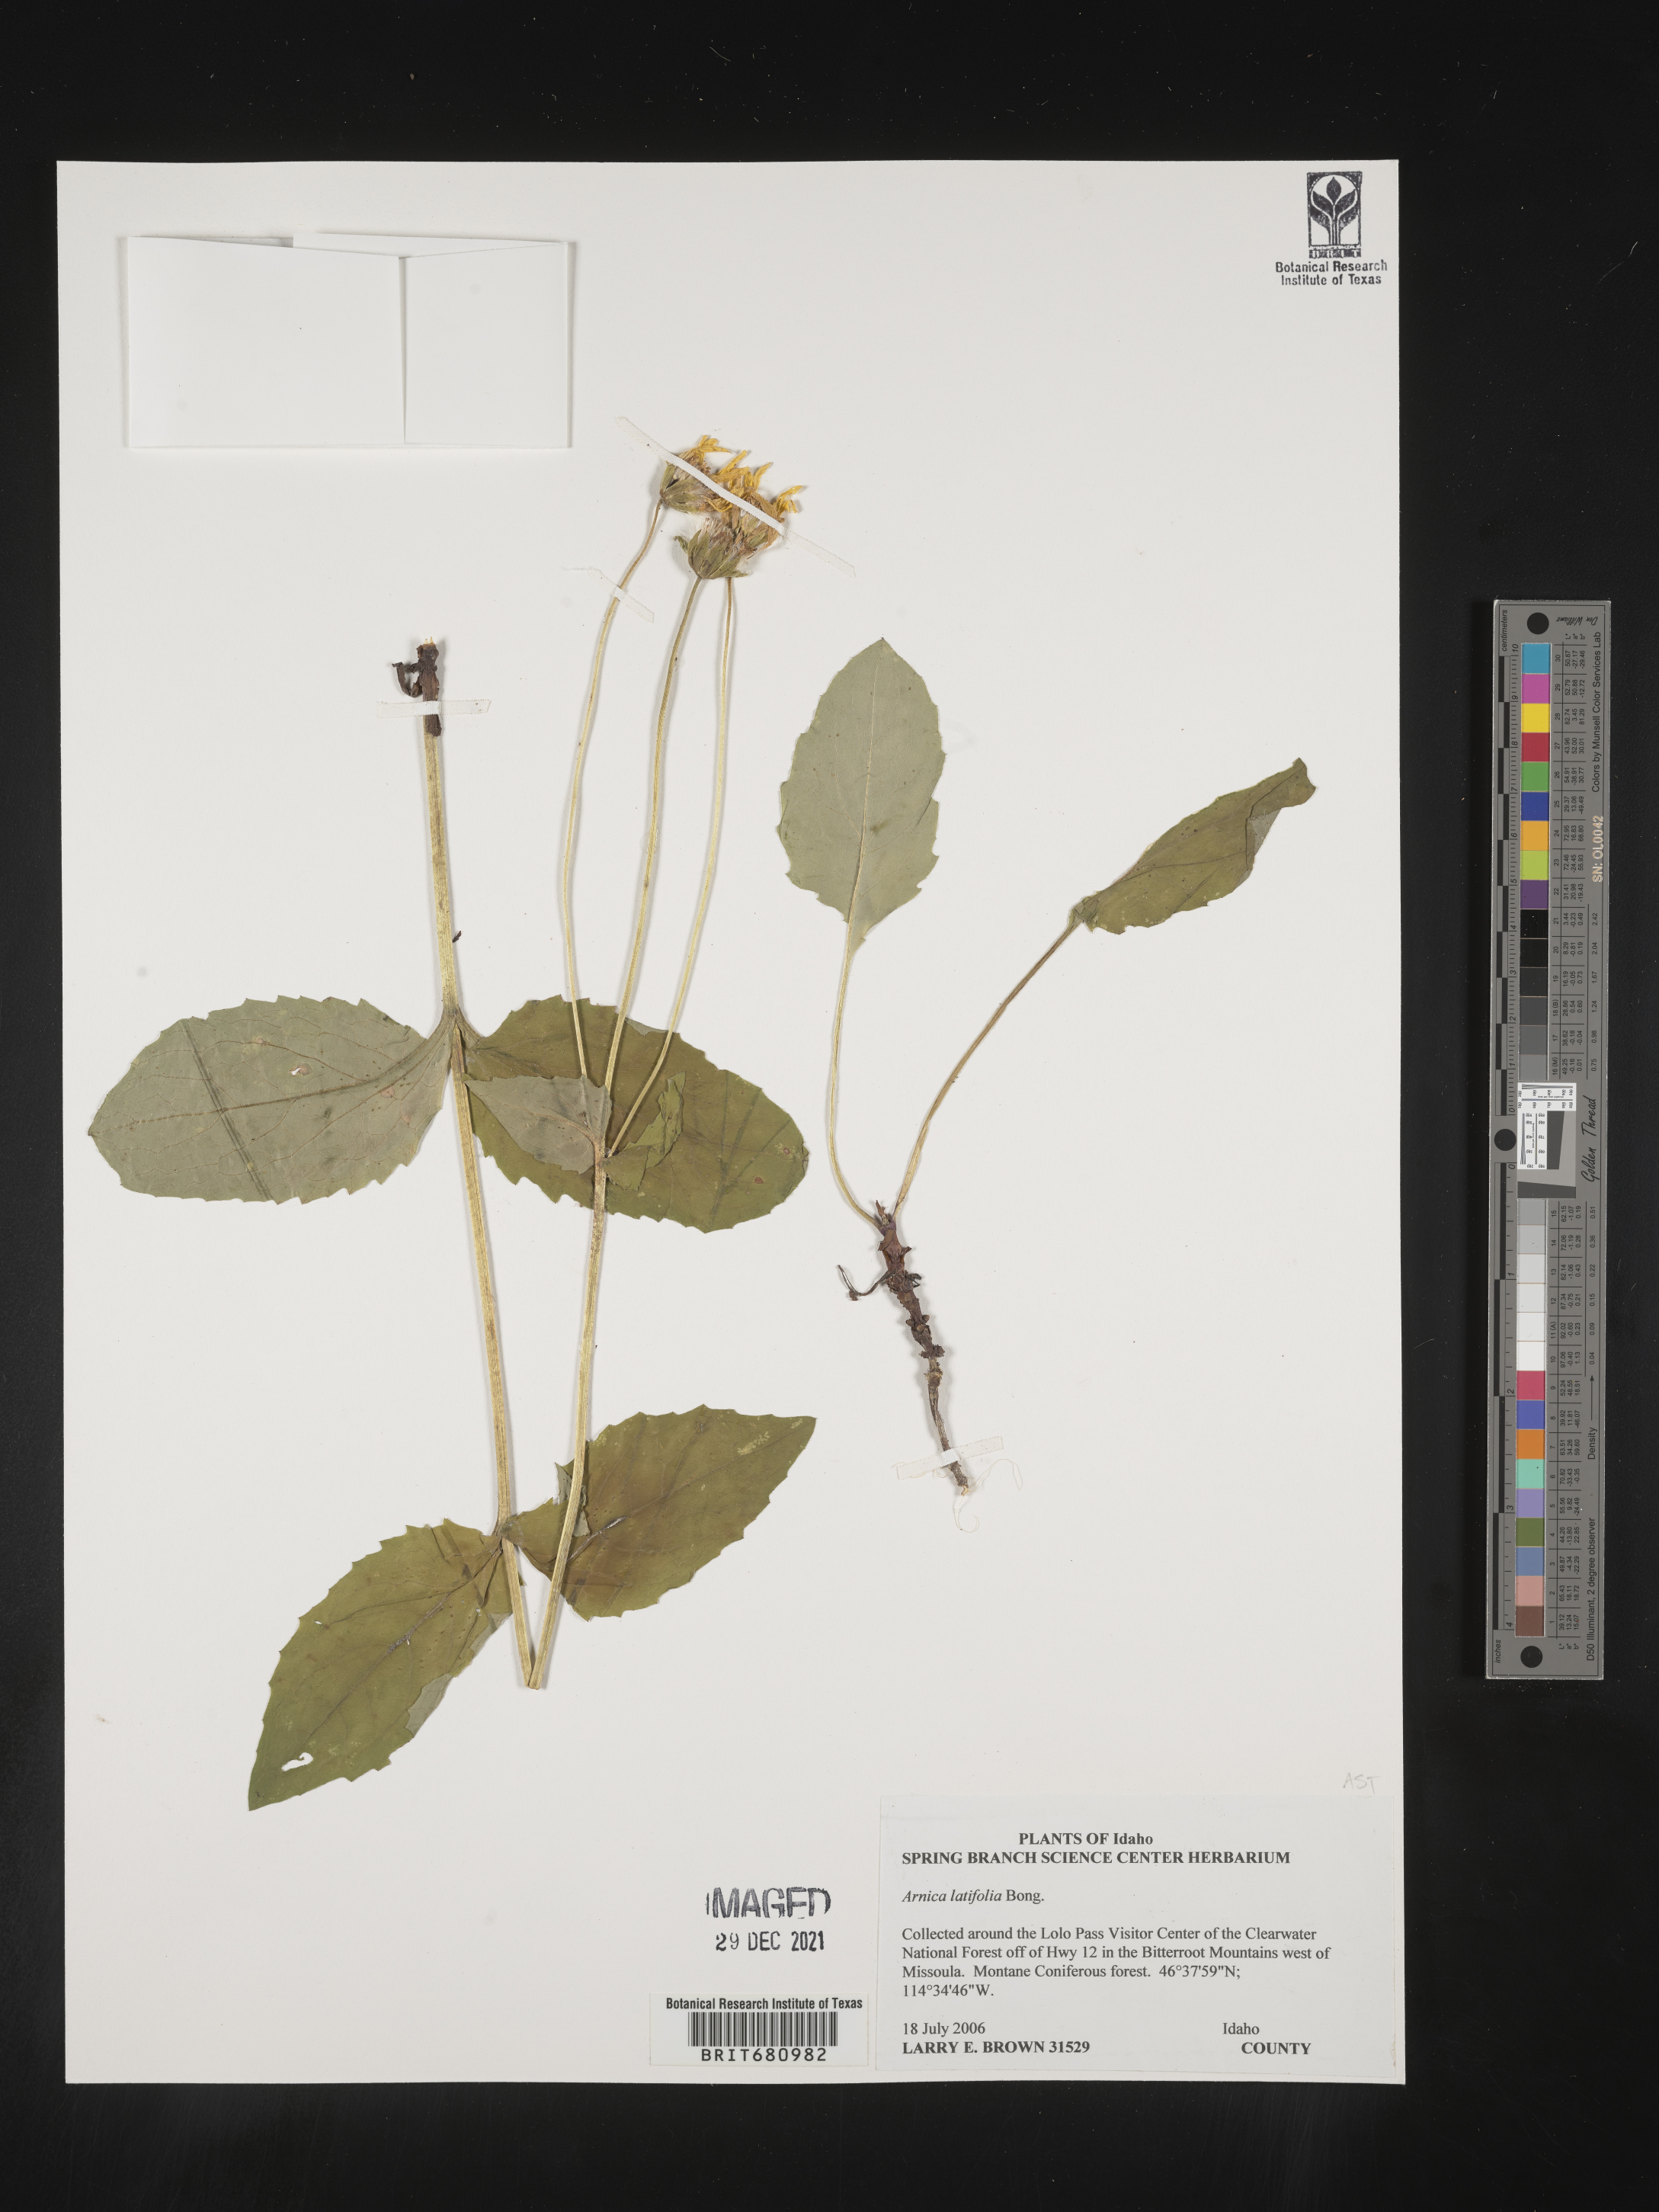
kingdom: Plantae
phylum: Tracheophyta
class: Magnoliopsida
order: Asterales
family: Asteraceae
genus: Arnica
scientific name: Arnica latifolia
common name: Arnica
